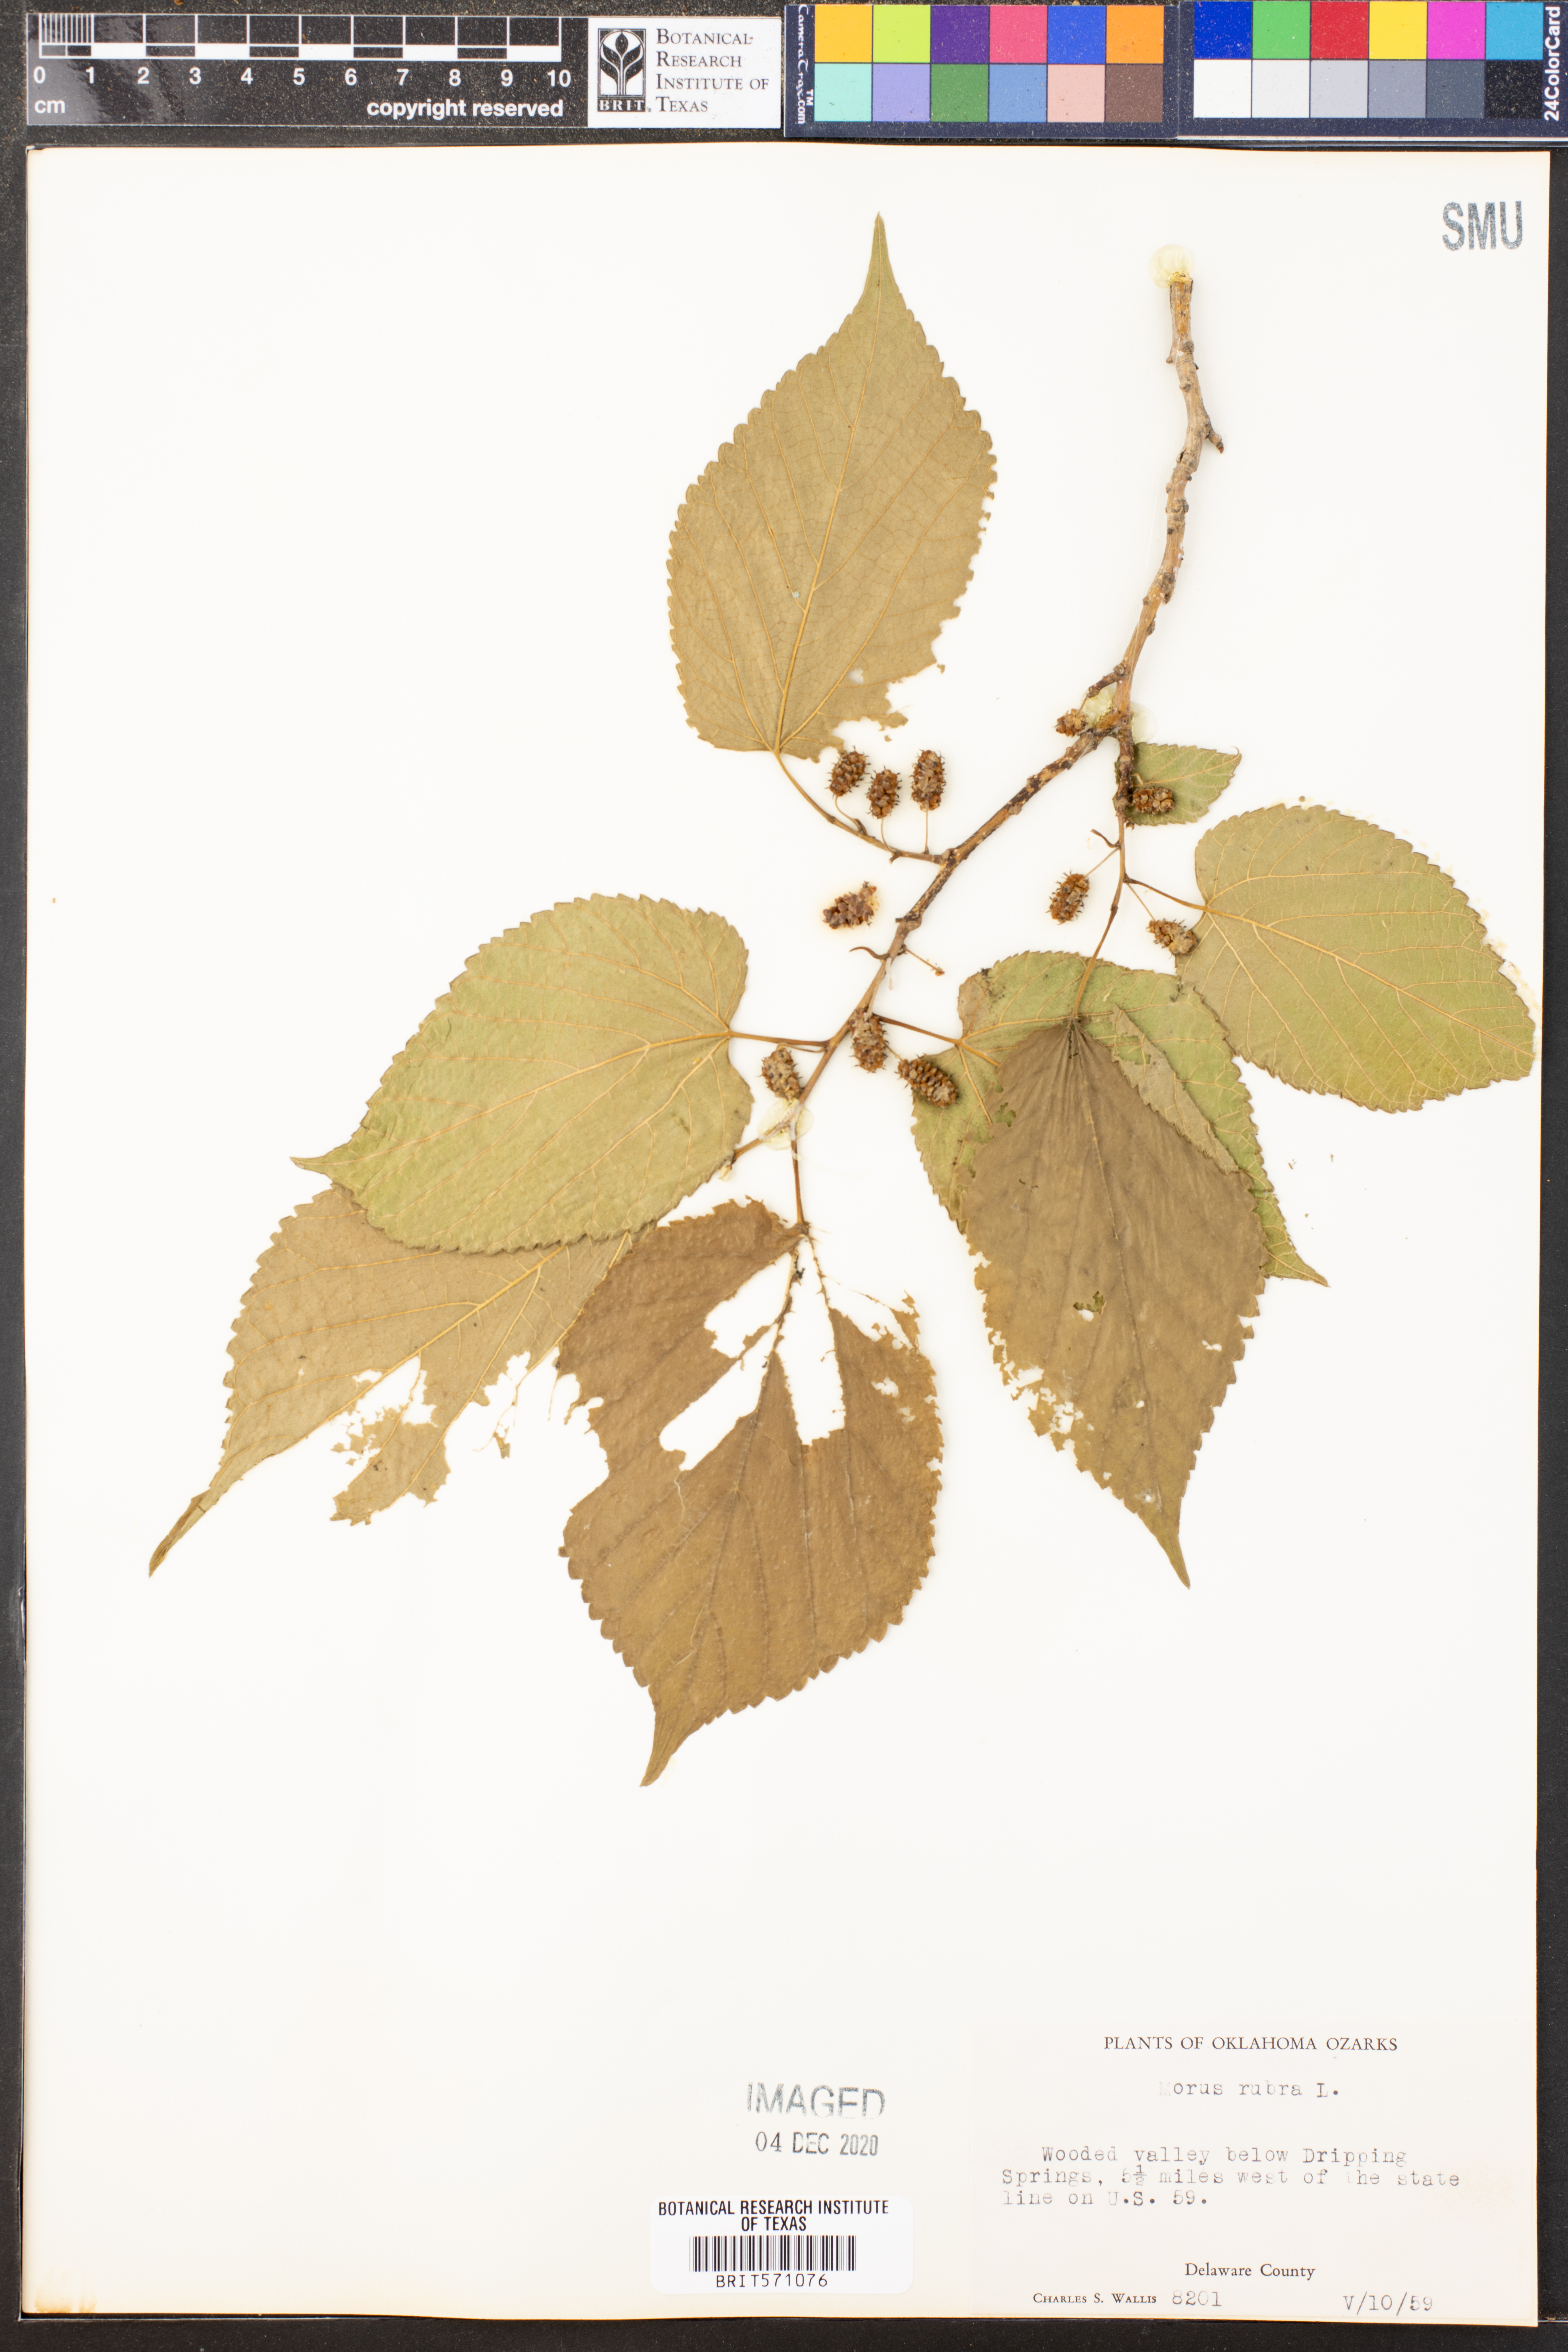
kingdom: Plantae
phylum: Tracheophyta
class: Magnoliopsida
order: Rosales
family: Moraceae
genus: Morus
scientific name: Morus rubra
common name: Red mulberry
